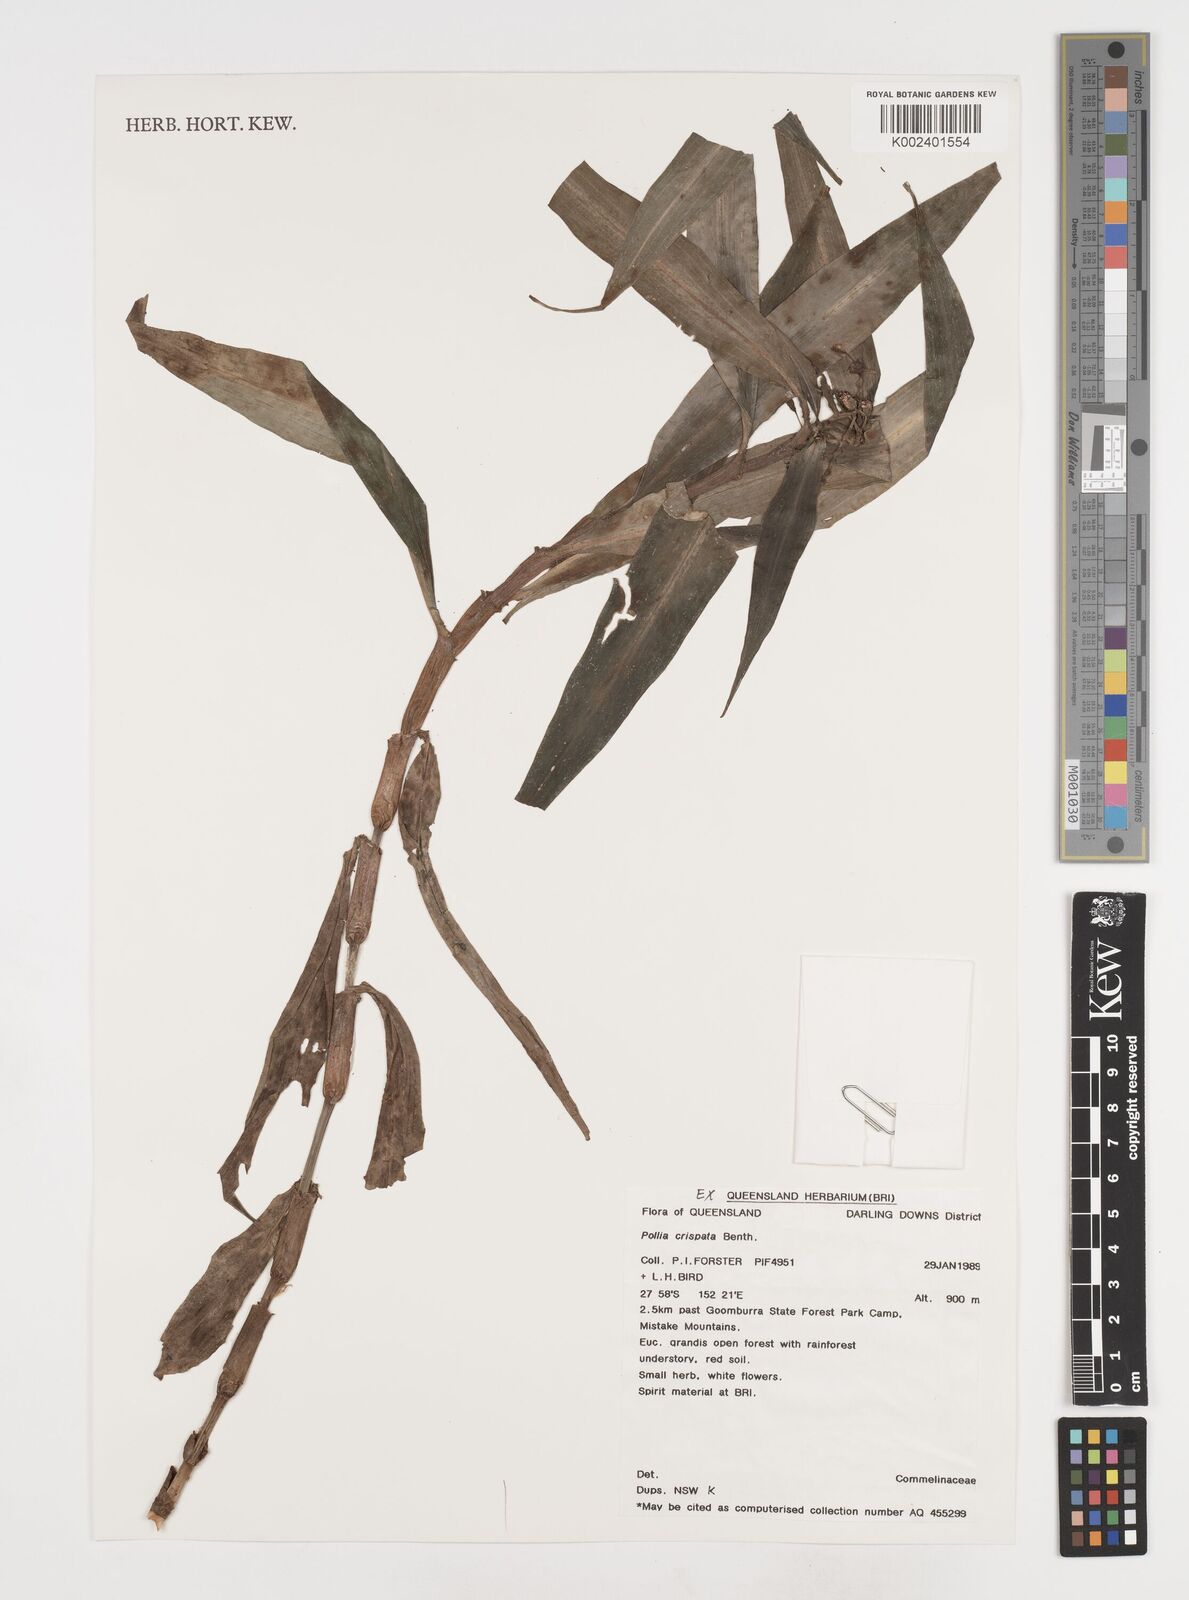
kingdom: Plantae
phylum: Tracheophyta
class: Liliopsida
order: Commelinales
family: Commelinaceae
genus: Pollia
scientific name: Pollia crispata
